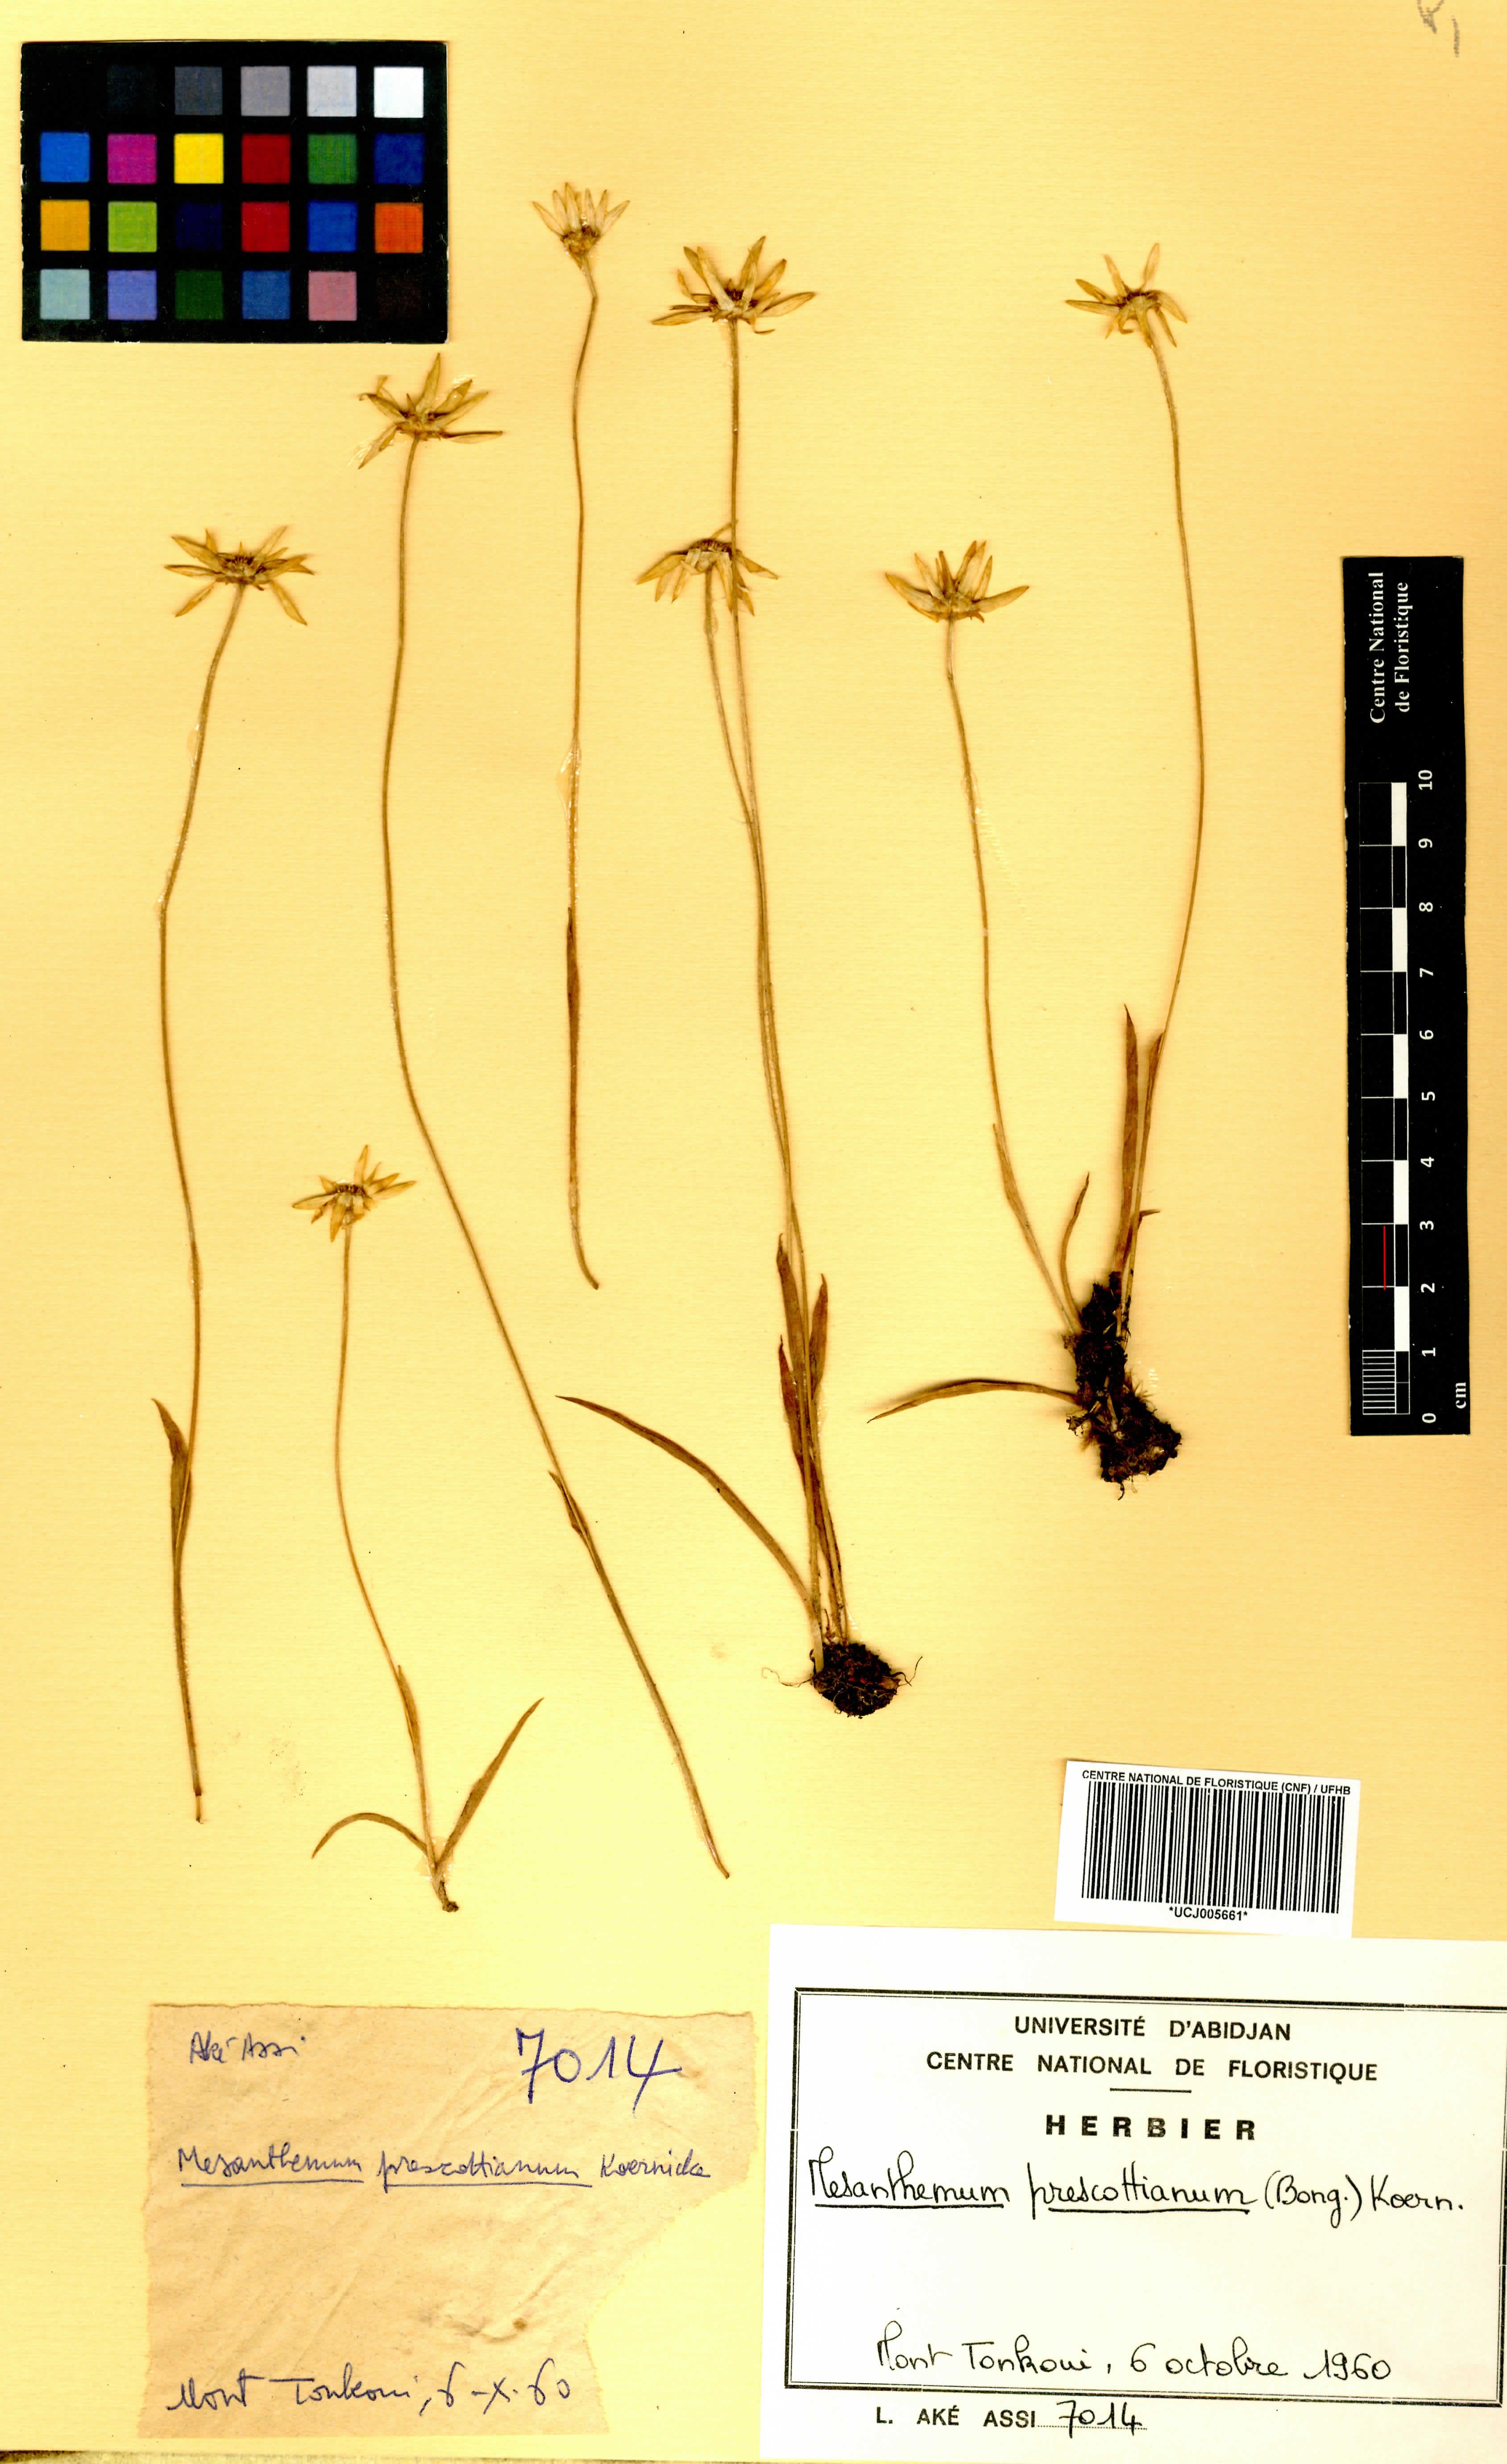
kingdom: Plantae
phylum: Tracheophyta
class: Liliopsida
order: Poales
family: Eriocaulaceae
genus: Mesanthemum
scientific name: Mesanthemum prescottianum
